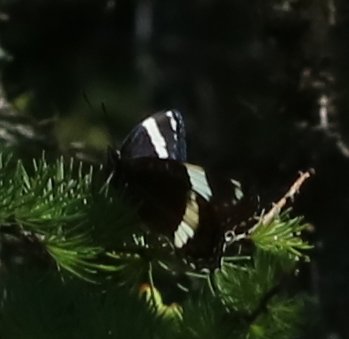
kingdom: Animalia
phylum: Arthropoda
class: Insecta
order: Lepidoptera
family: Nymphalidae
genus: Limenitis
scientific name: Limenitis arthemis
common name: Red-spotted Admiral
